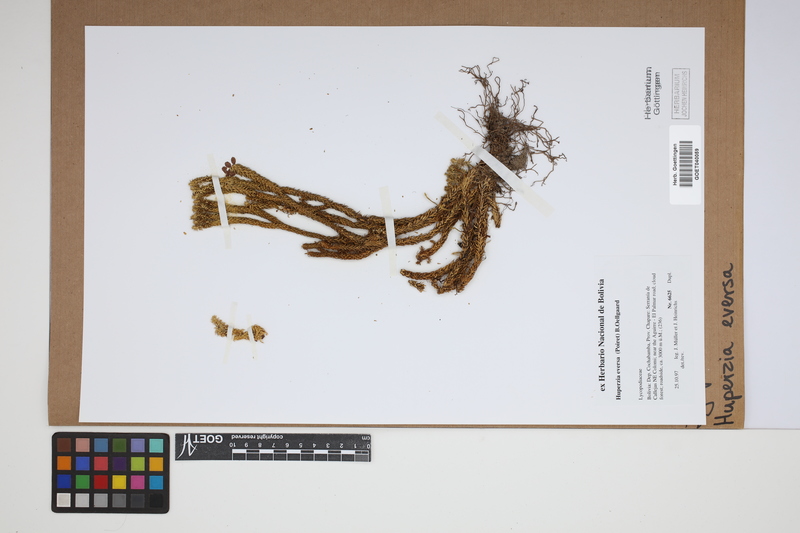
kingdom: Plantae
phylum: Tracheophyta
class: Lycopodiopsida
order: Lycopodiales
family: Lycopodiaceae
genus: Phlegmariurus
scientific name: Phlegmariurus eversus
